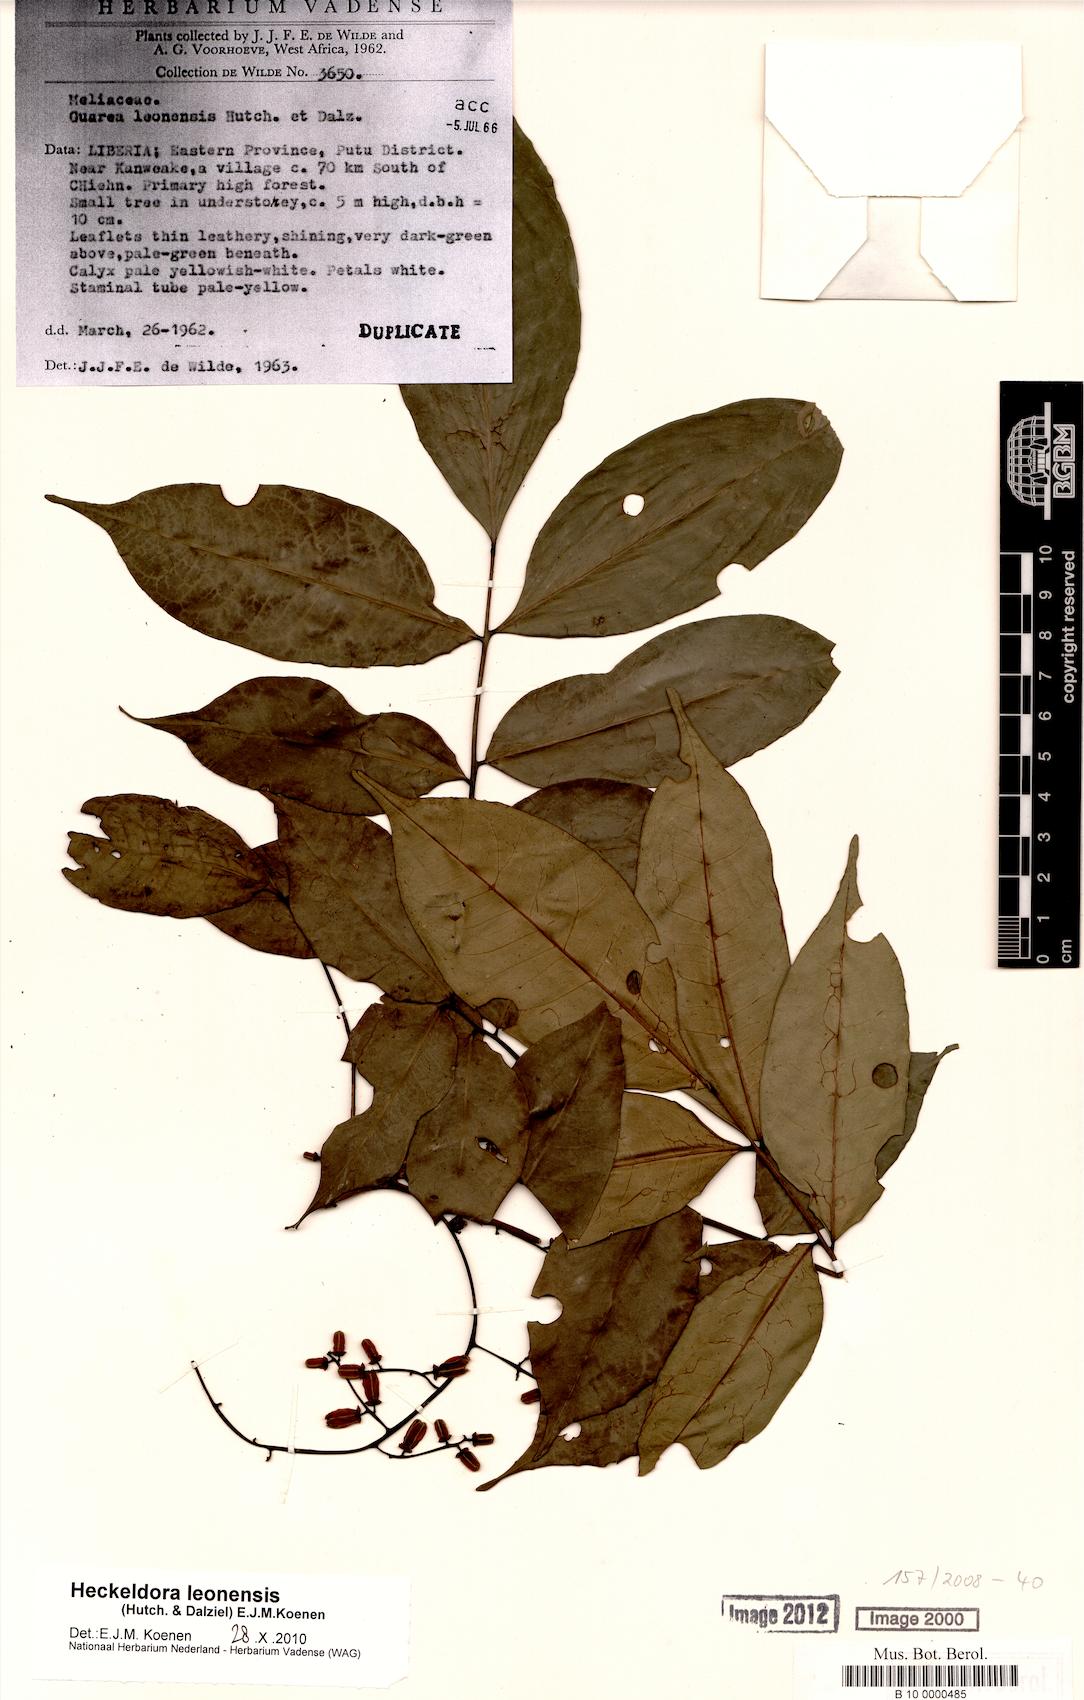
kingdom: Plantae
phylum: Tracheophyta
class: Magnoliopsida
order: Sapindales
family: Meliaceae
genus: Heckeldora
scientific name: Heckeldora leonensis
